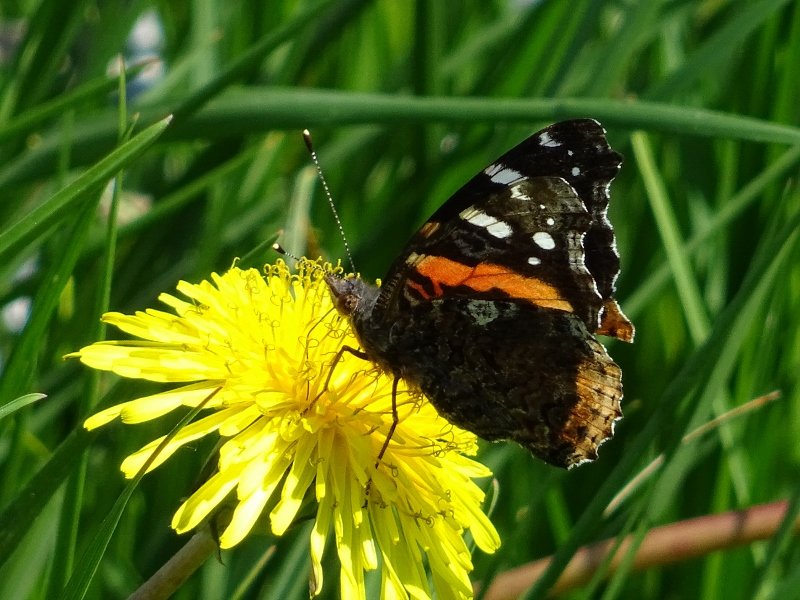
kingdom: Animalia
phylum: Arthropoda
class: Insecta
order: Lepidoptera
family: Nymphalidae
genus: Vanessa
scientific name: Vanessa atalanta
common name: Red Admiral
